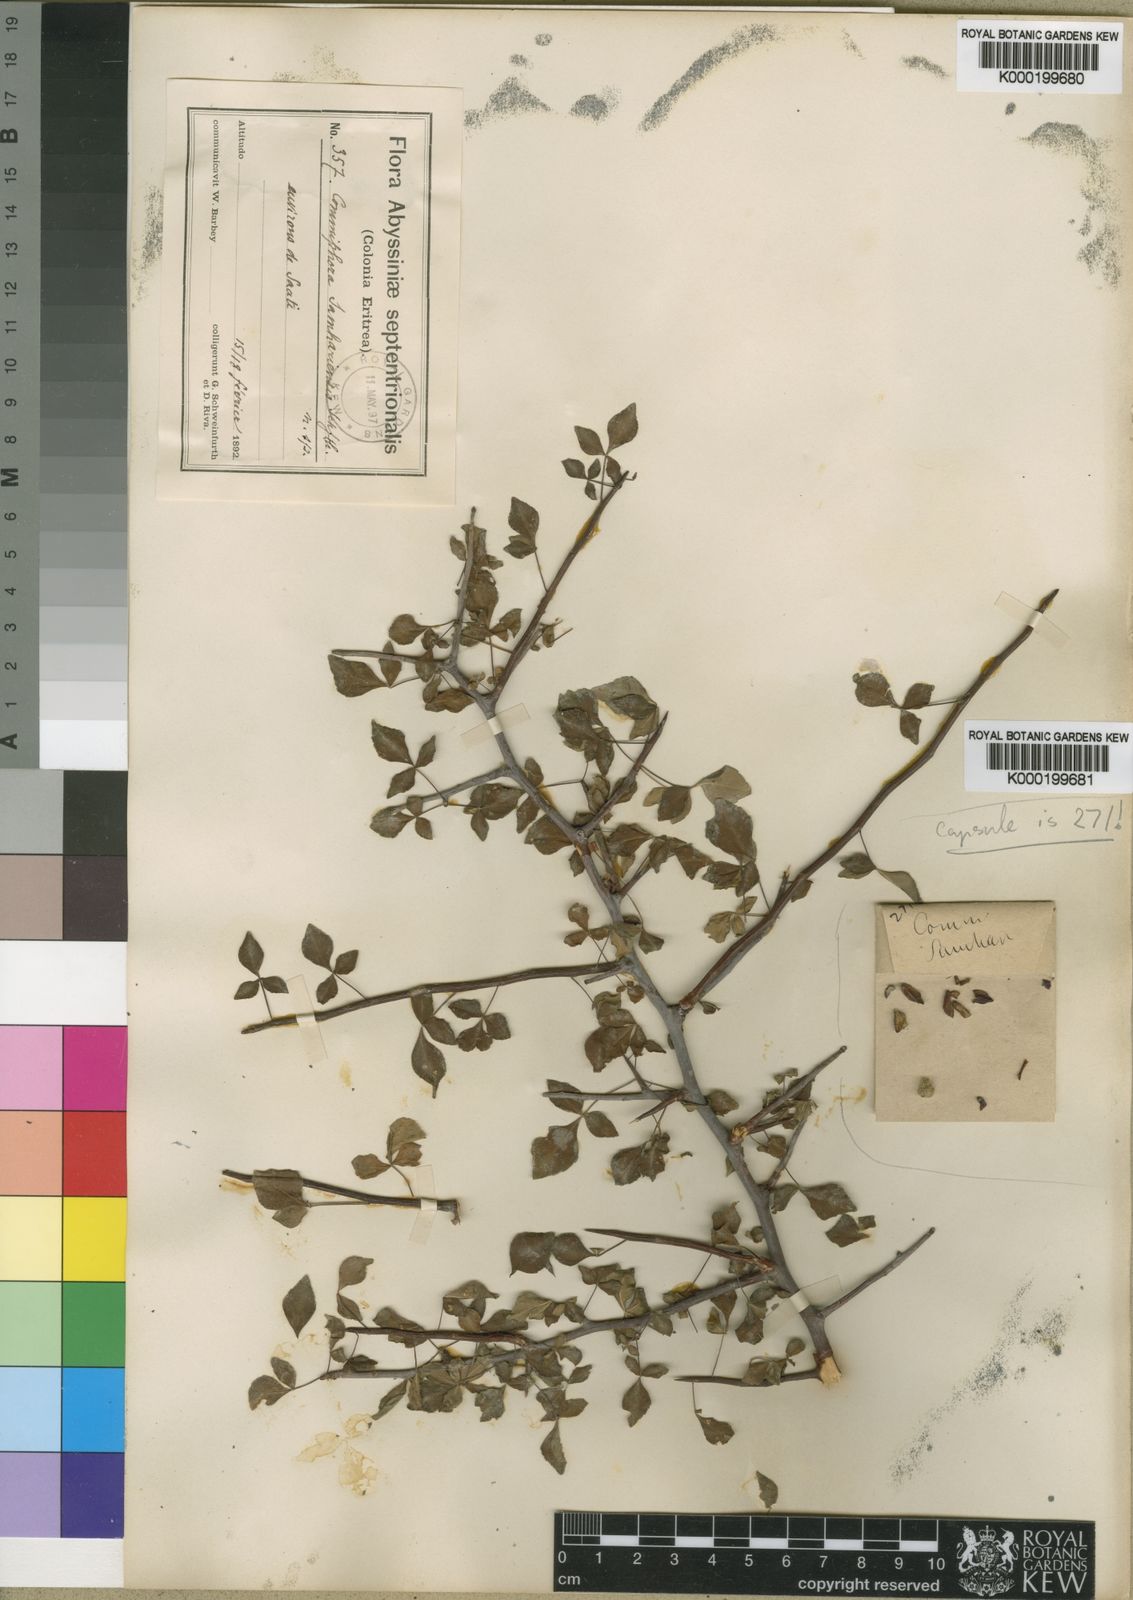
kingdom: Plantae
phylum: Tracheophyta
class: Magnoliopsida
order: Sapindales
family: Burseraceae
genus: Commiphora
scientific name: Commiphora samharensis
